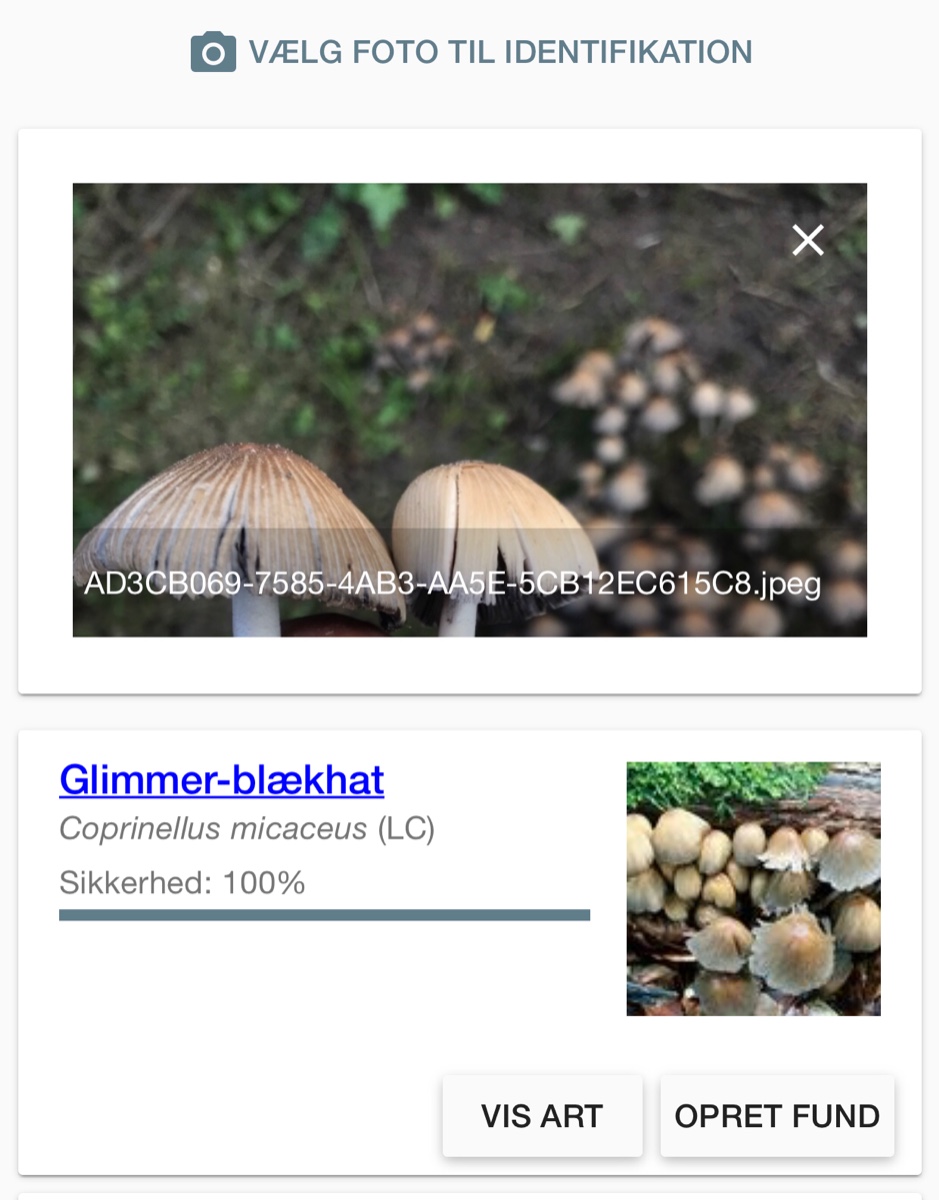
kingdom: Fungi
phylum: Basidiomycota
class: Agaricomycetes
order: Agaricales
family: Psathyrellaceae
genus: Coprinellus
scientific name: Coprinellus
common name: blækhat
